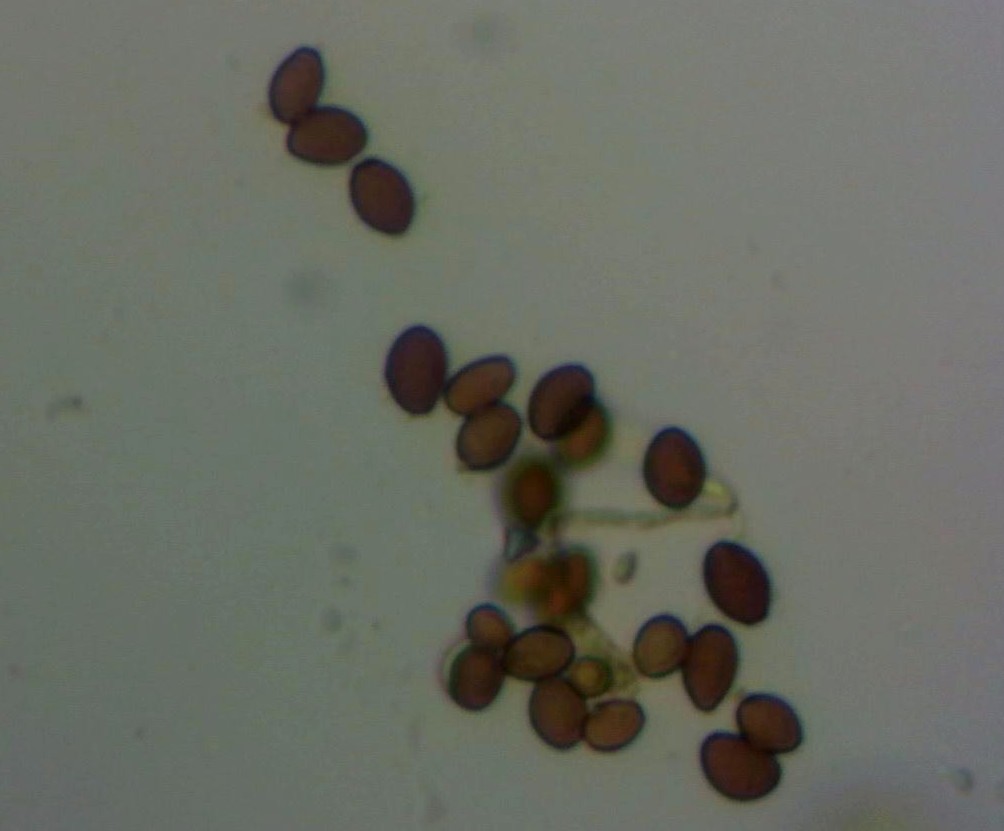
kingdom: Fungi
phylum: Ascomycota
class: Sordariomycetes
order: Microascales
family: Microascaceae
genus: Cephalotrichum
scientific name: Cephalotrichum
